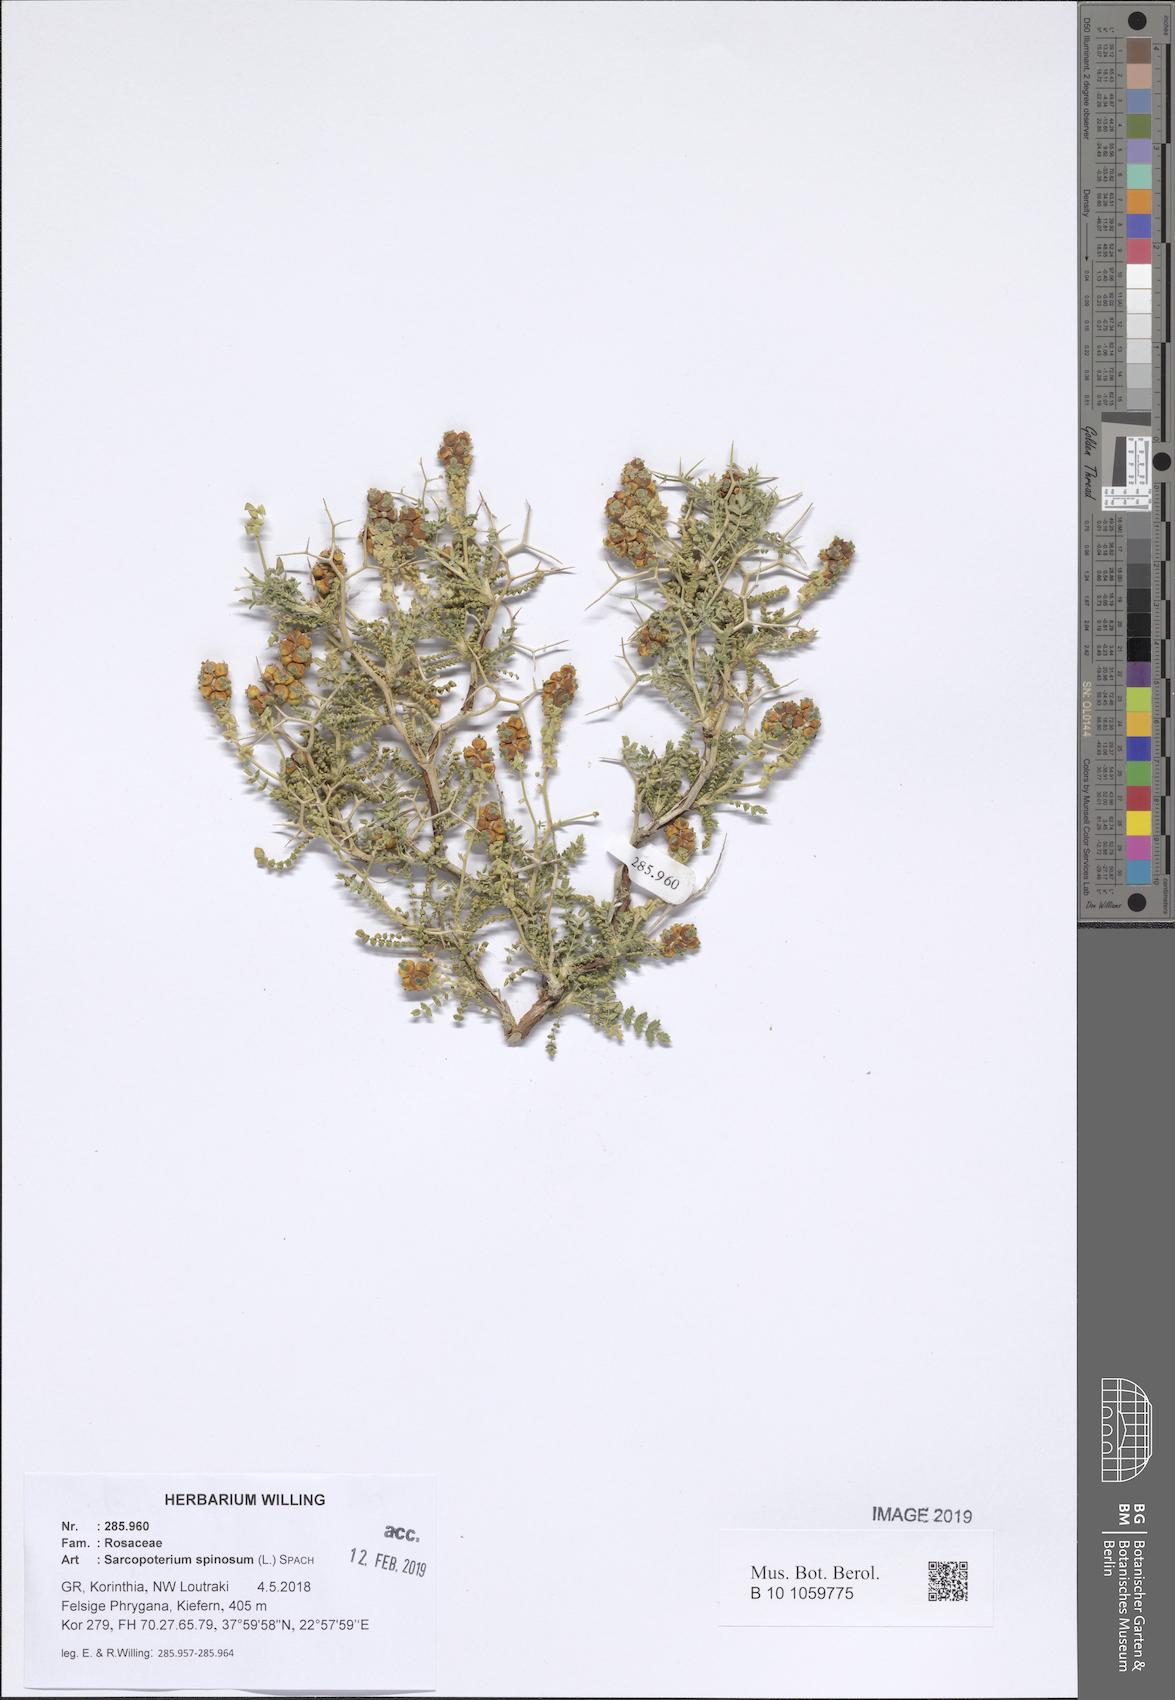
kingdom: Plantae
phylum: Tracheophyta
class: Magnoliopsida
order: Rosales
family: Rosaceae
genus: Sarcopoterium
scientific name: Sarcopoterium spinosum
